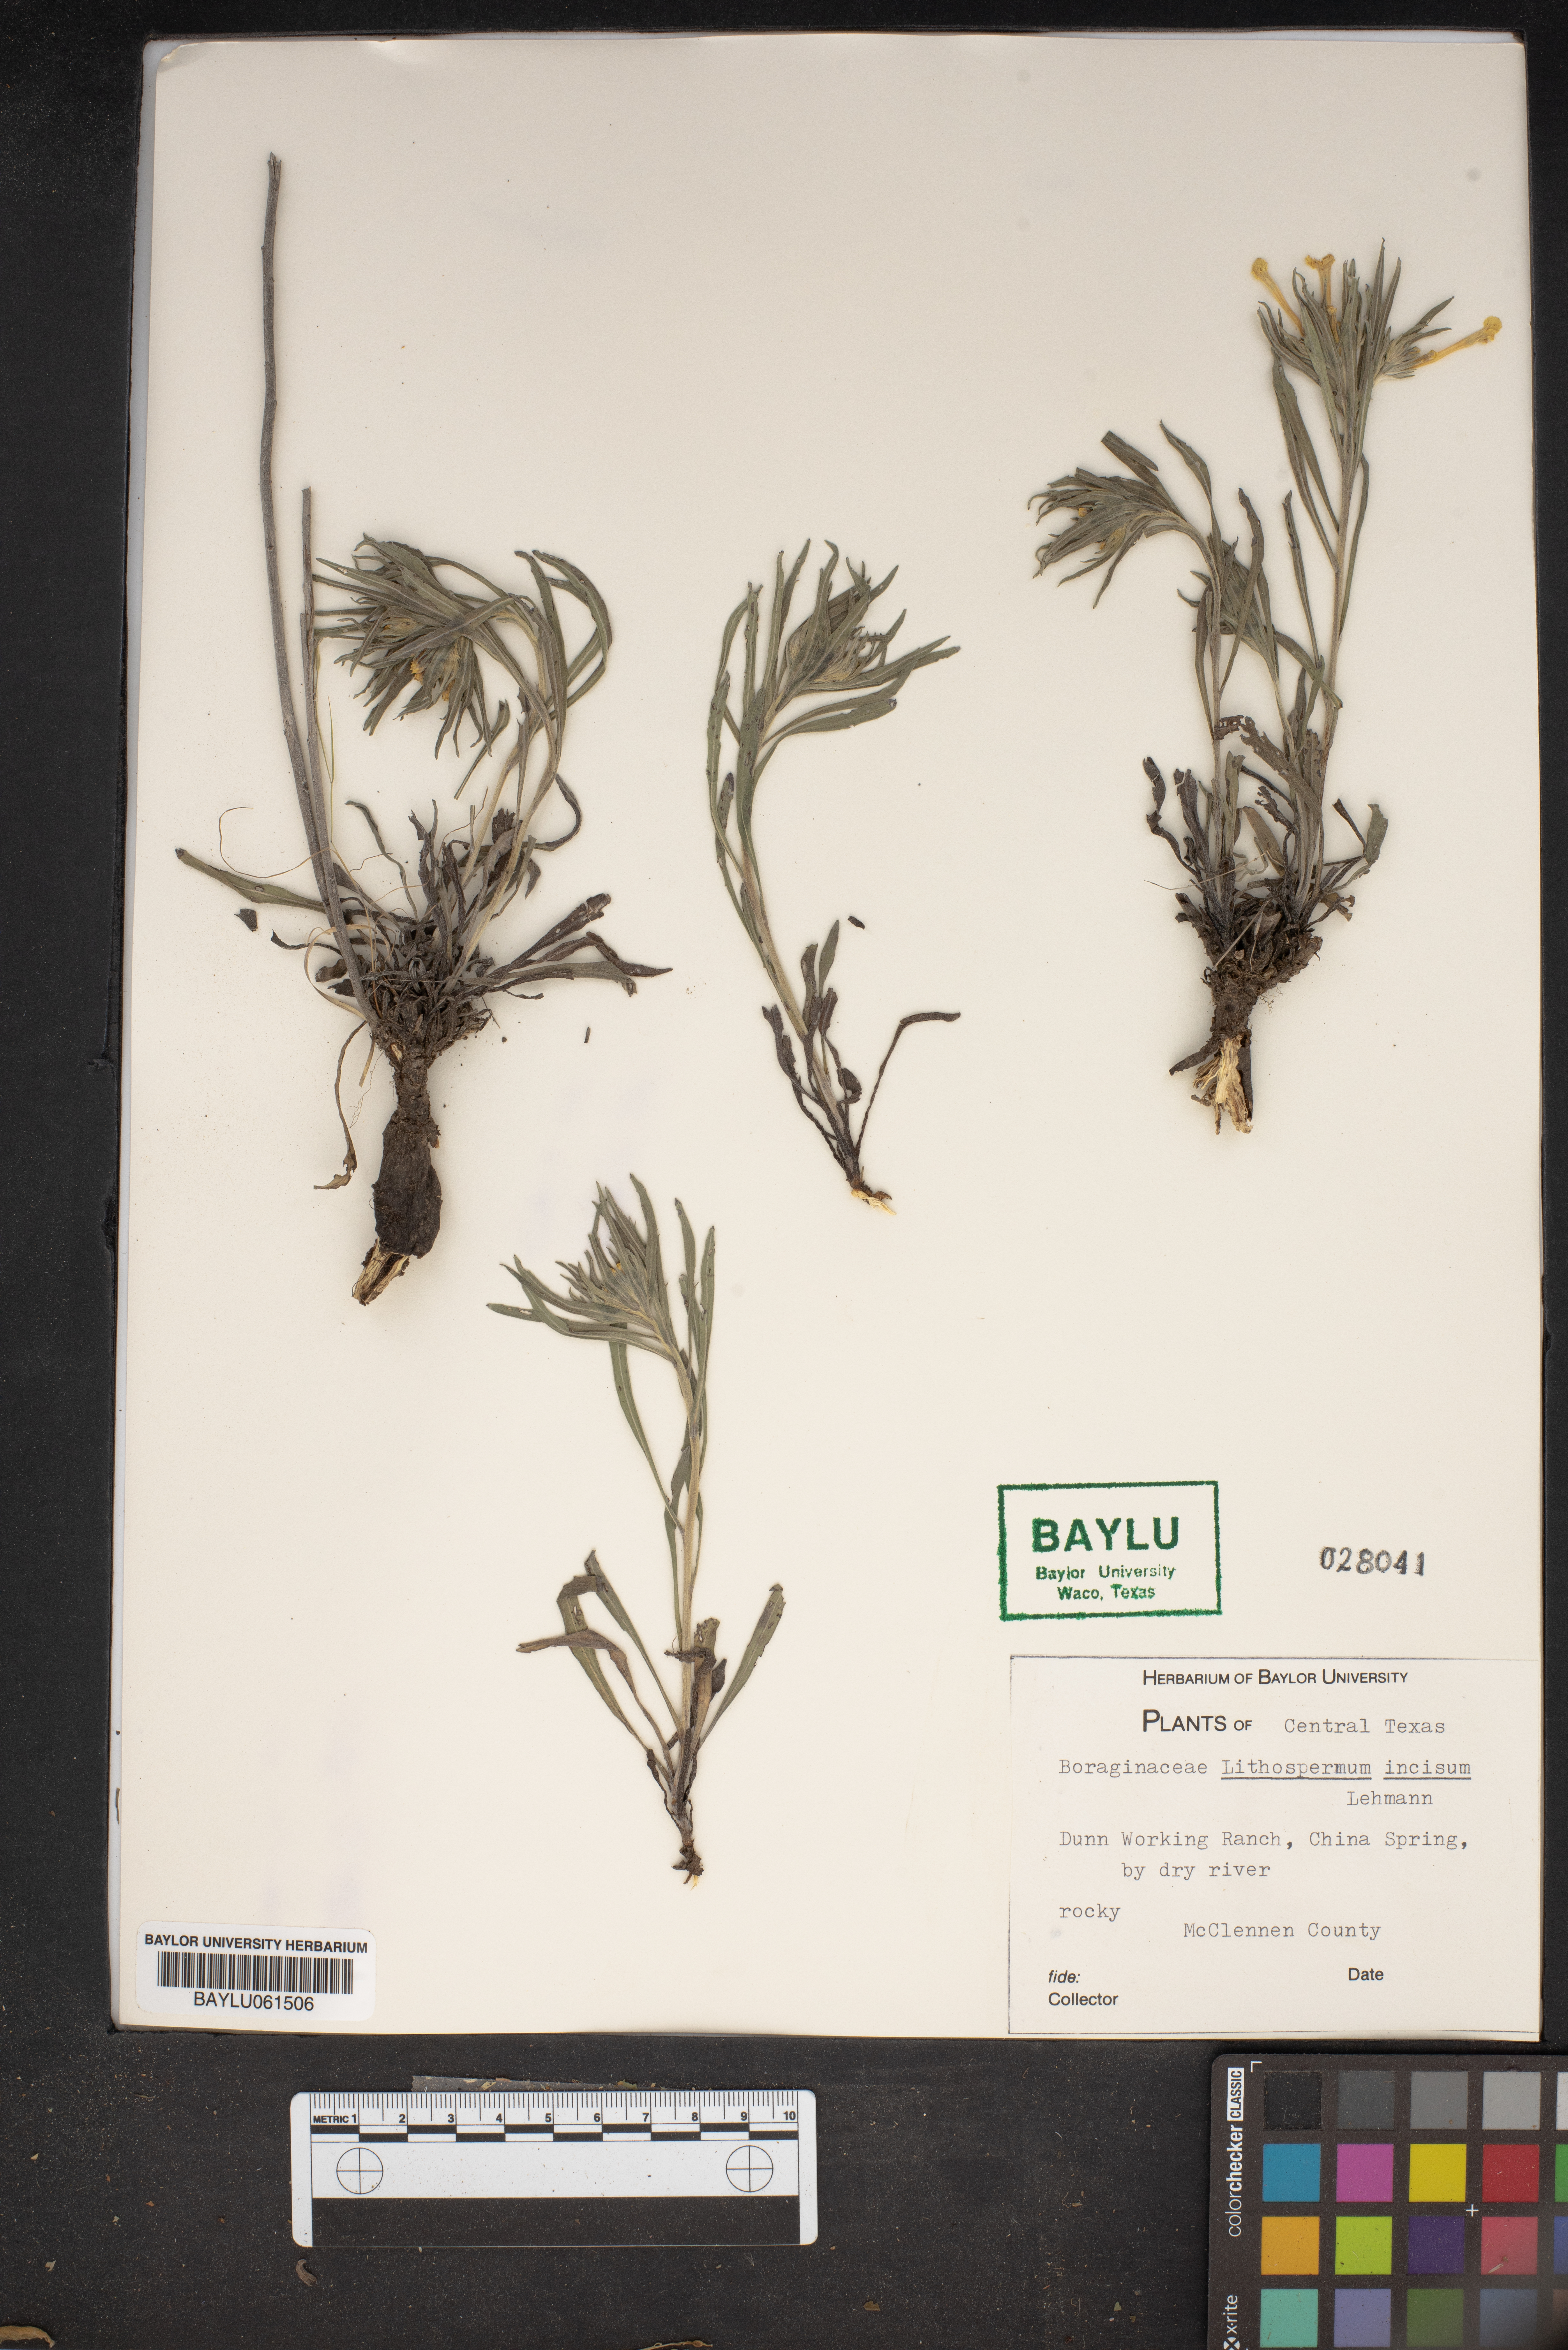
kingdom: Plantae
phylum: Tracheophyta
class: Magnoliopsida
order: Boraginales
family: Boraginaceae
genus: Lithospermum
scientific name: Lithospermum incisum
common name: Fringed gromwell
